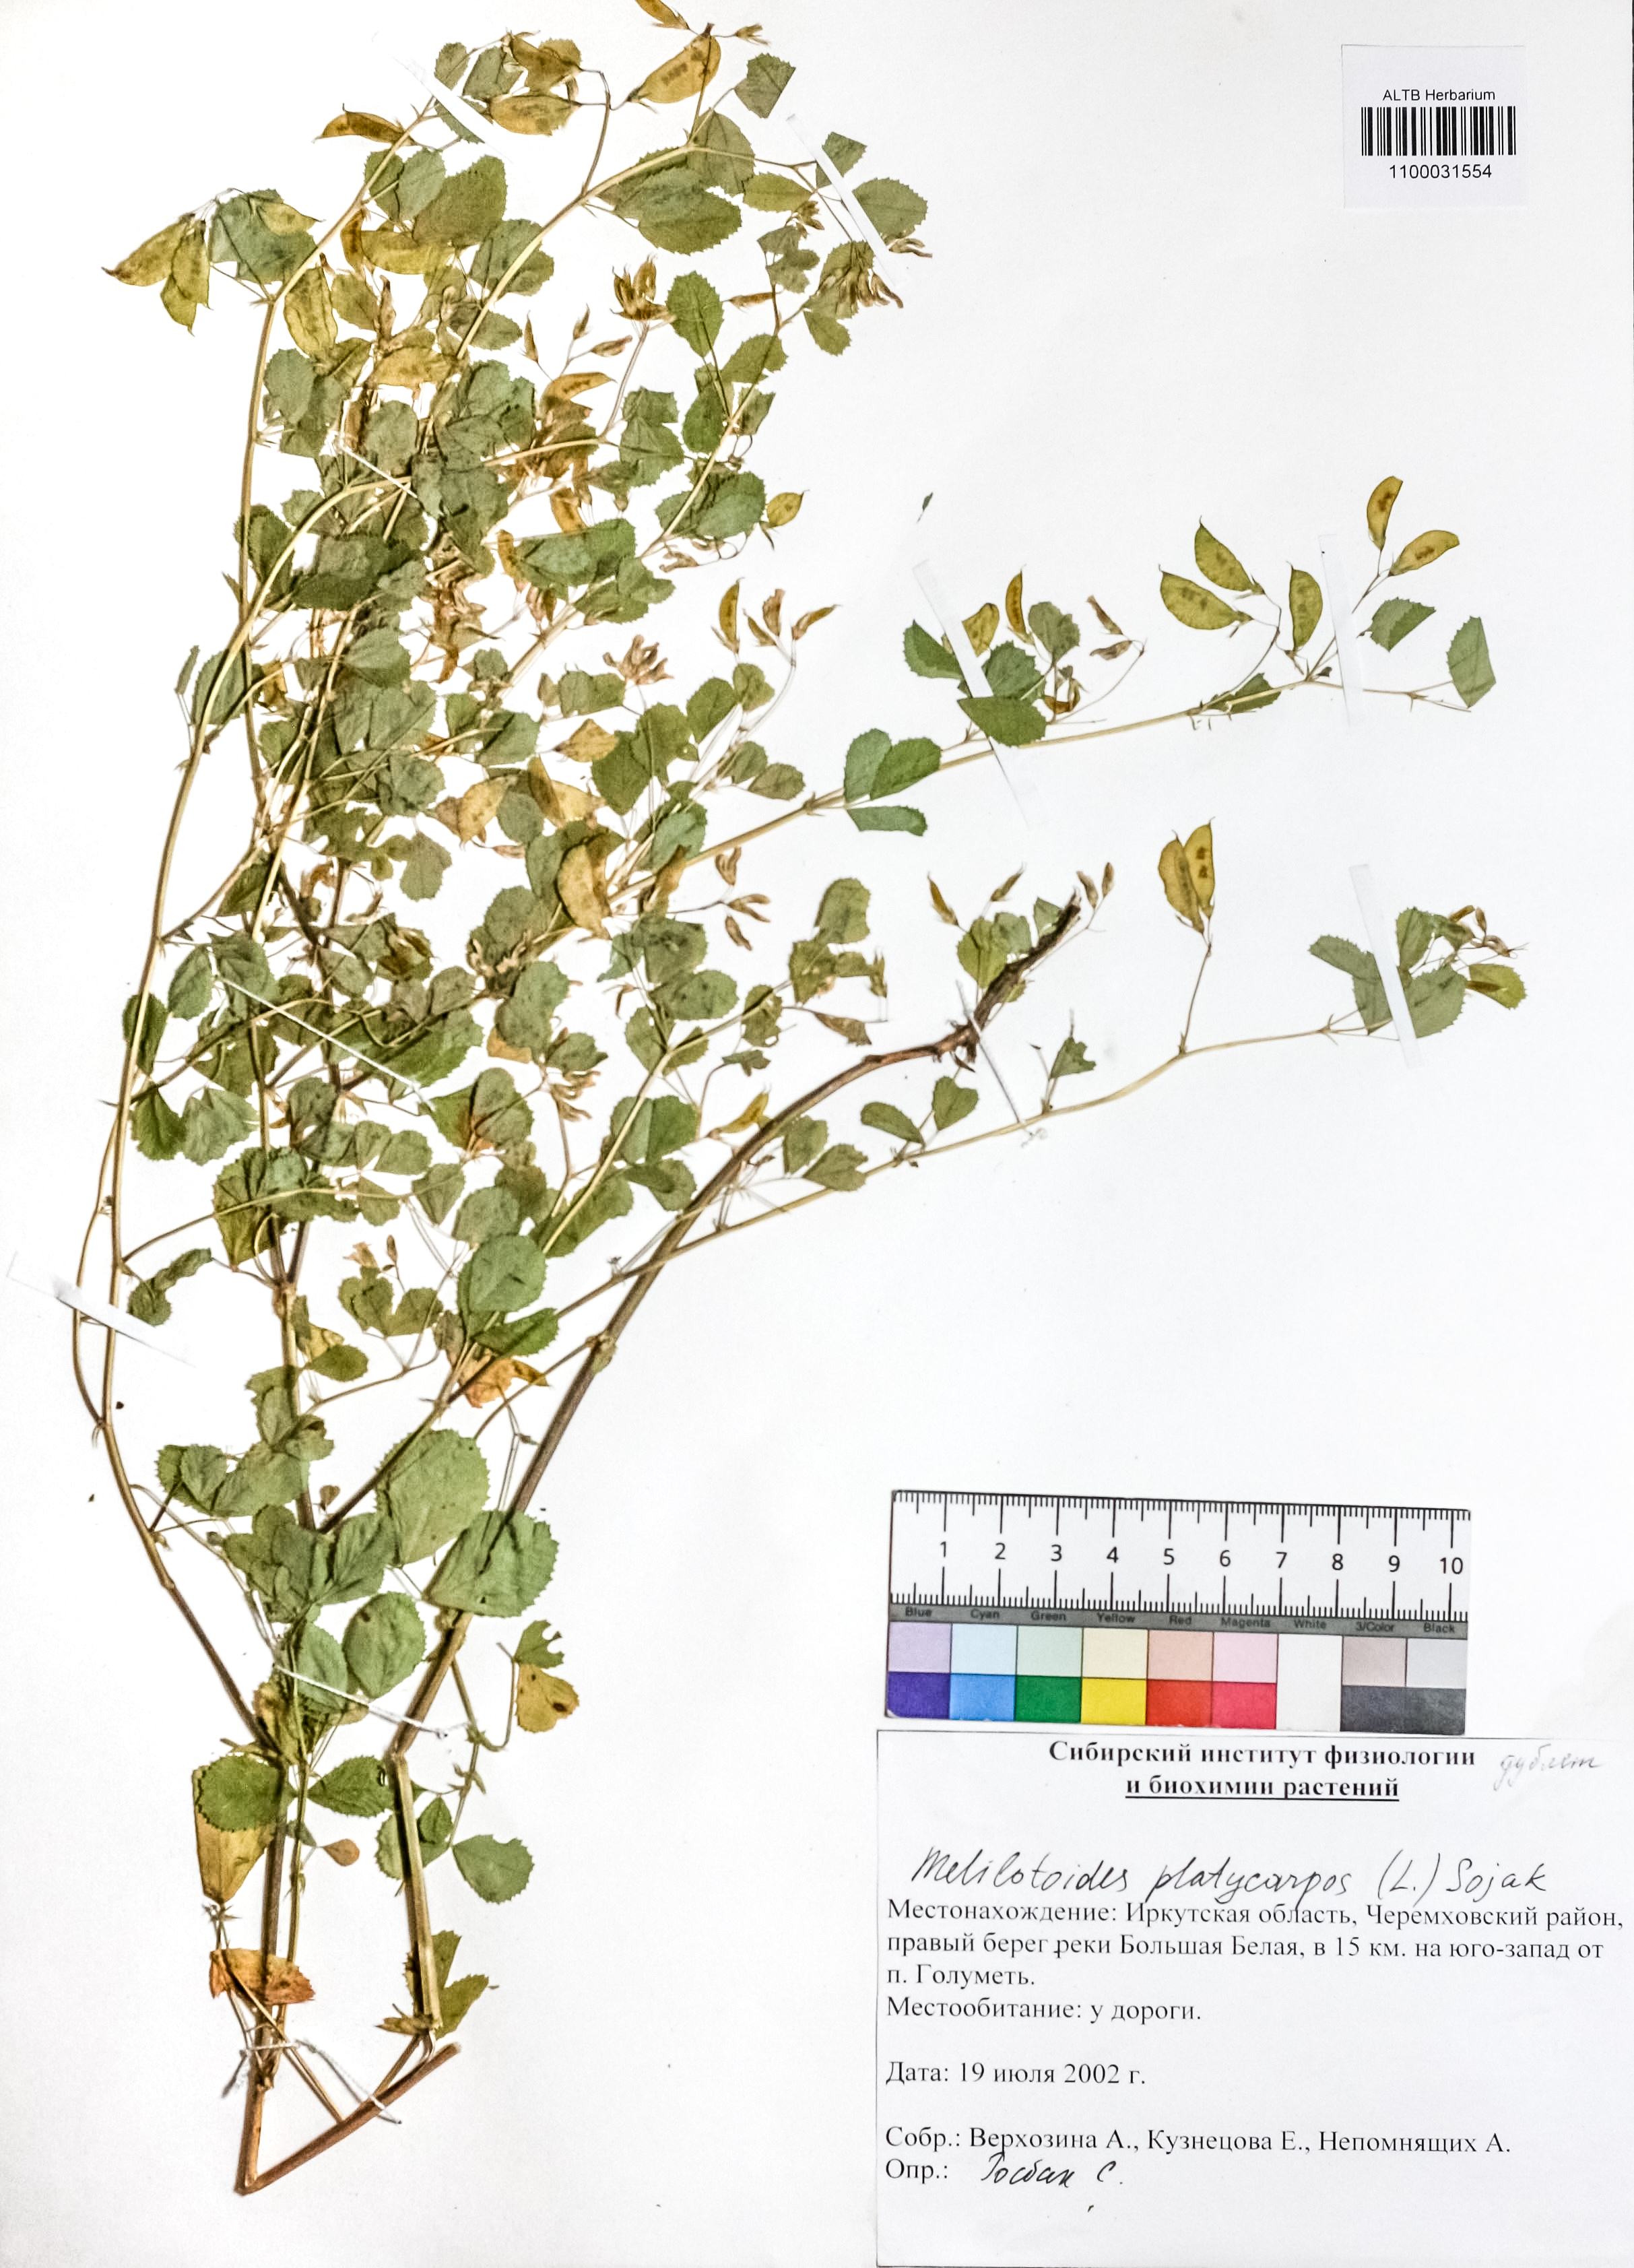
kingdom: Plantae
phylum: Tracheophyta
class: Magnoliopsida
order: Fabales
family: Fabaceae
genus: Medicago
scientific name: Medicago platycarpos
